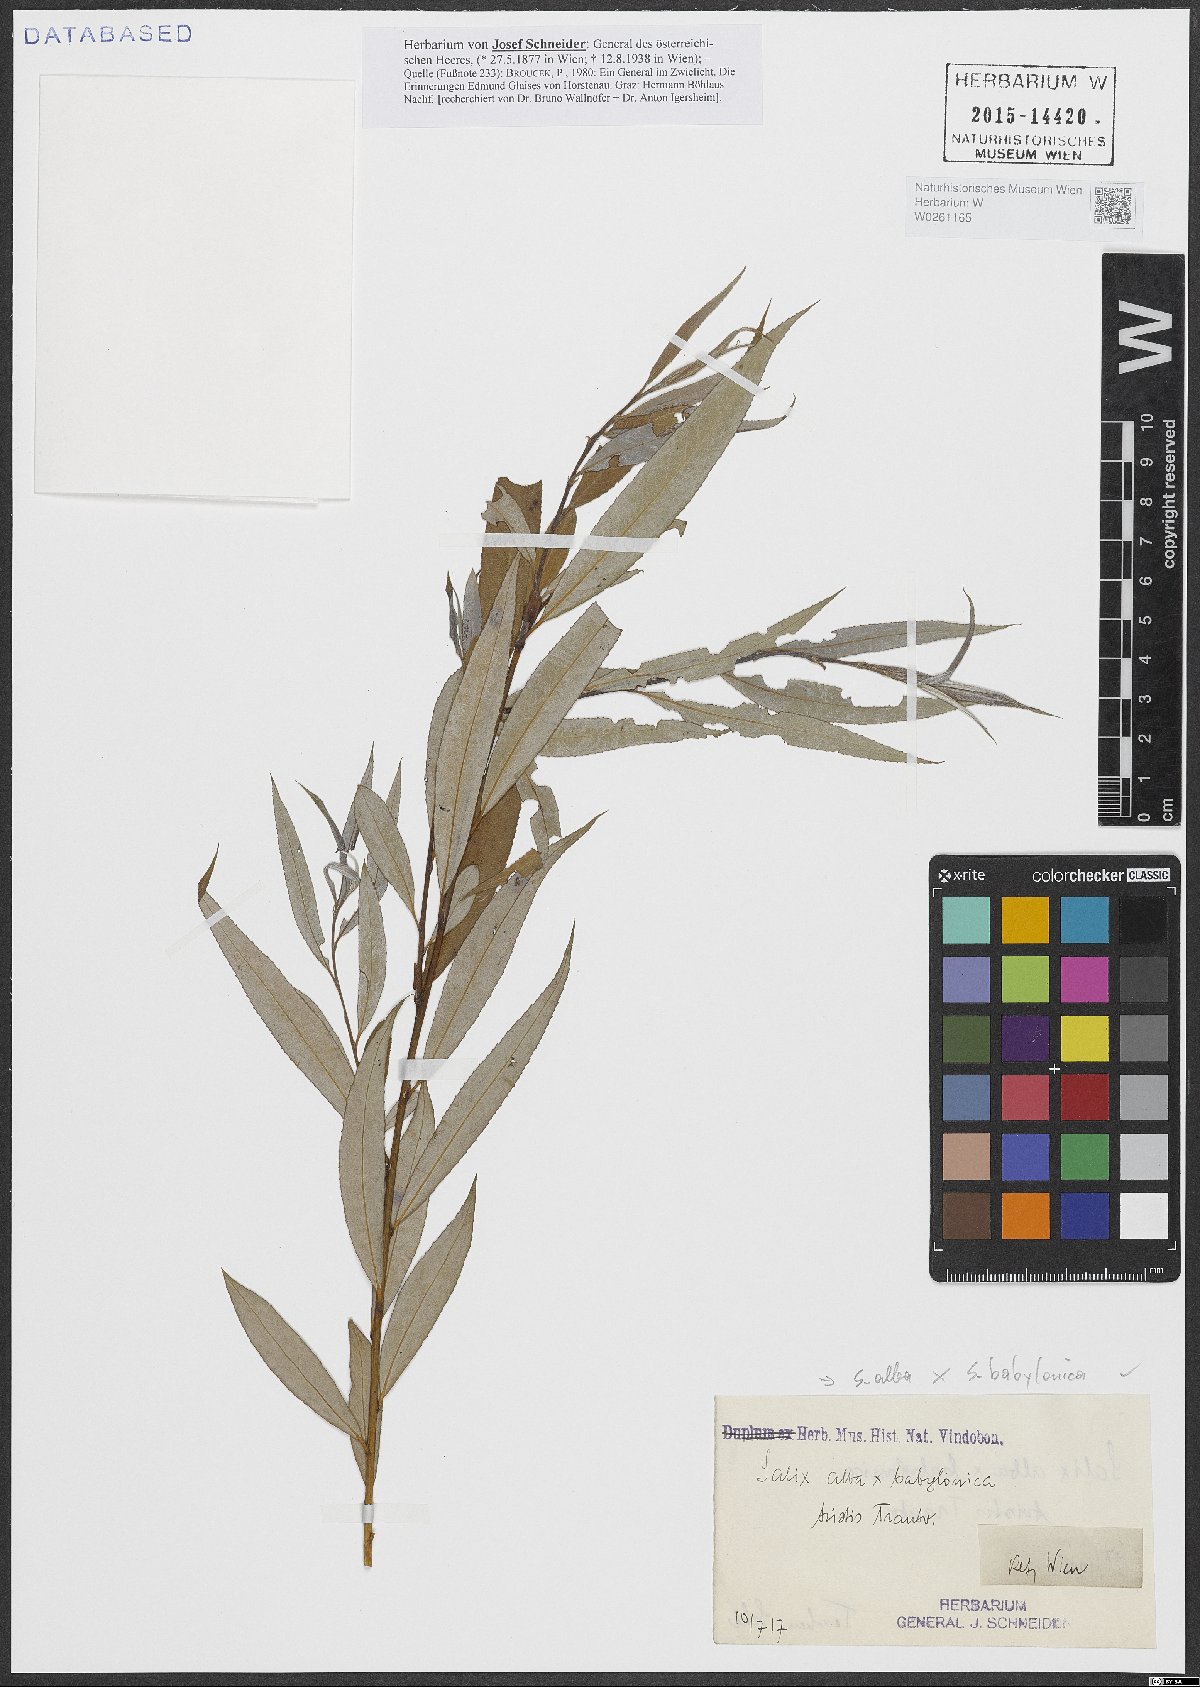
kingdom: Plantae
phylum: Tracheophyta
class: Magnoliopsida
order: Malpighiales
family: Salicaceae
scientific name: Salicaceae
